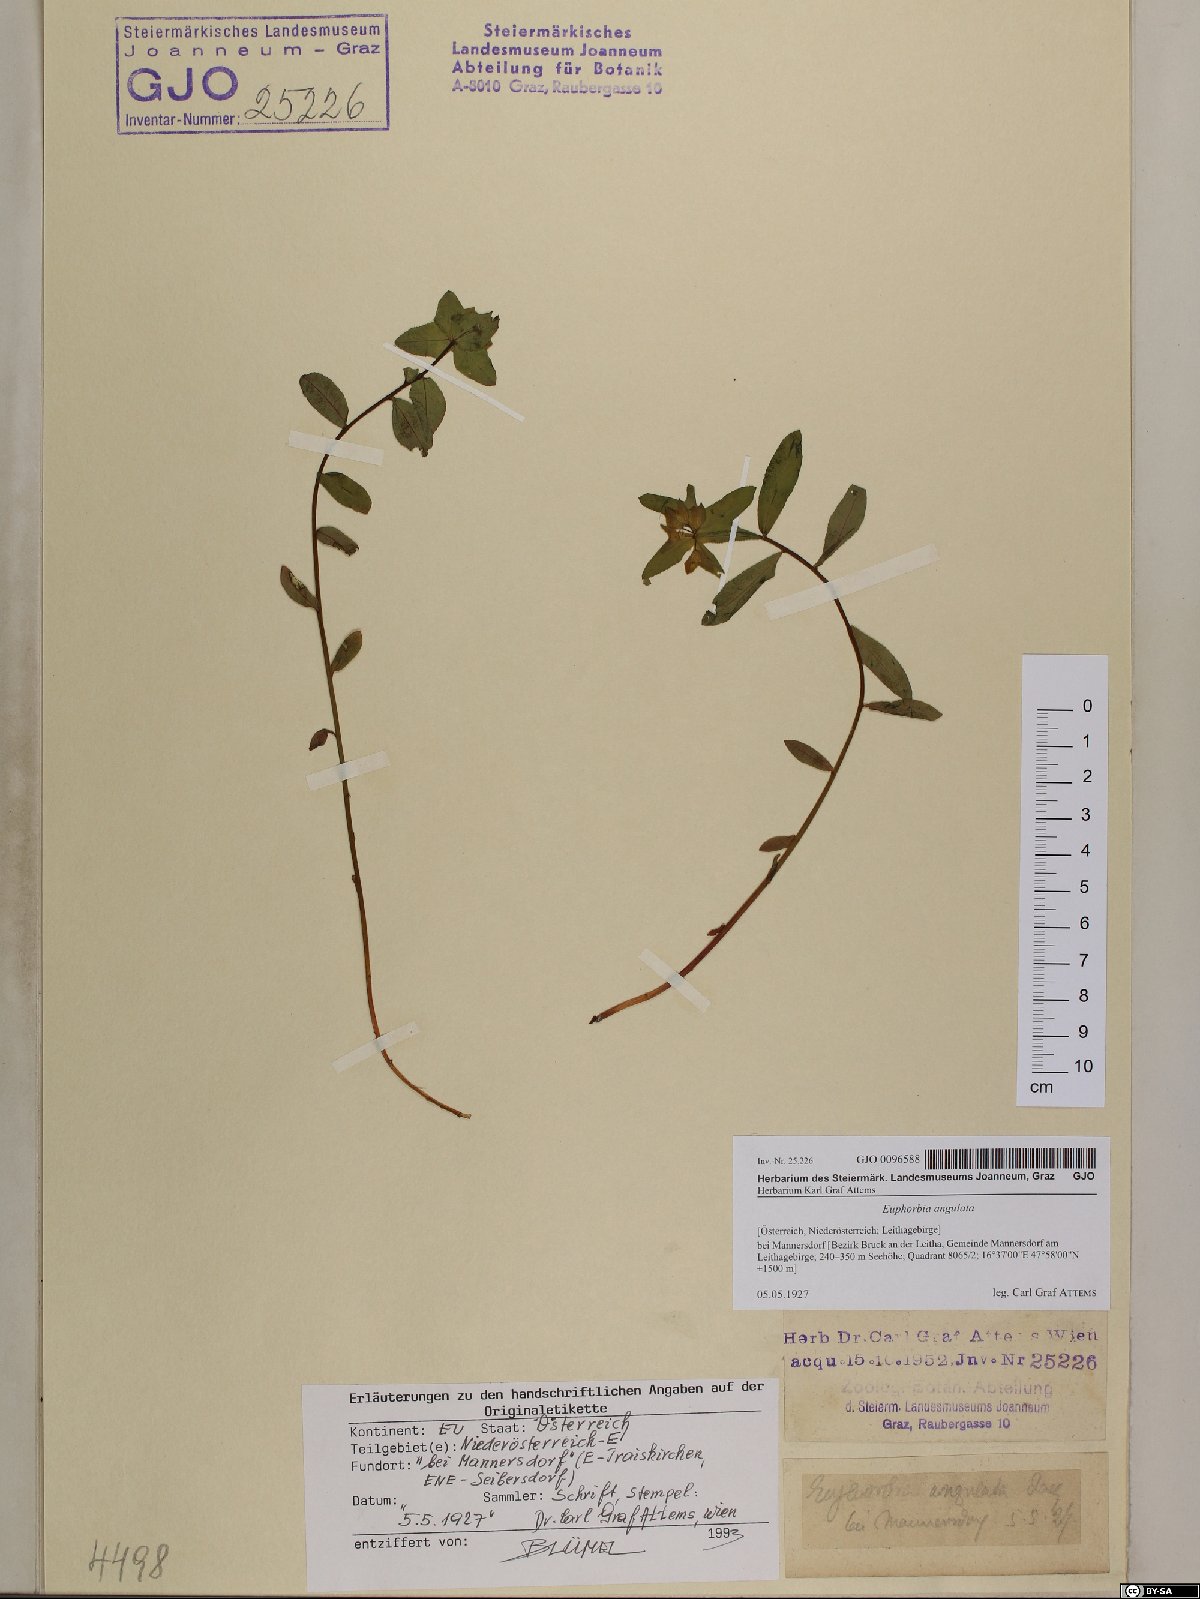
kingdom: Plantae
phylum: Tracheophyta
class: Magnoliopsida
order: Malpighiales
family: Euphorbiaceae
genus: Euphorbia
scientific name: Euphorbia angulata
